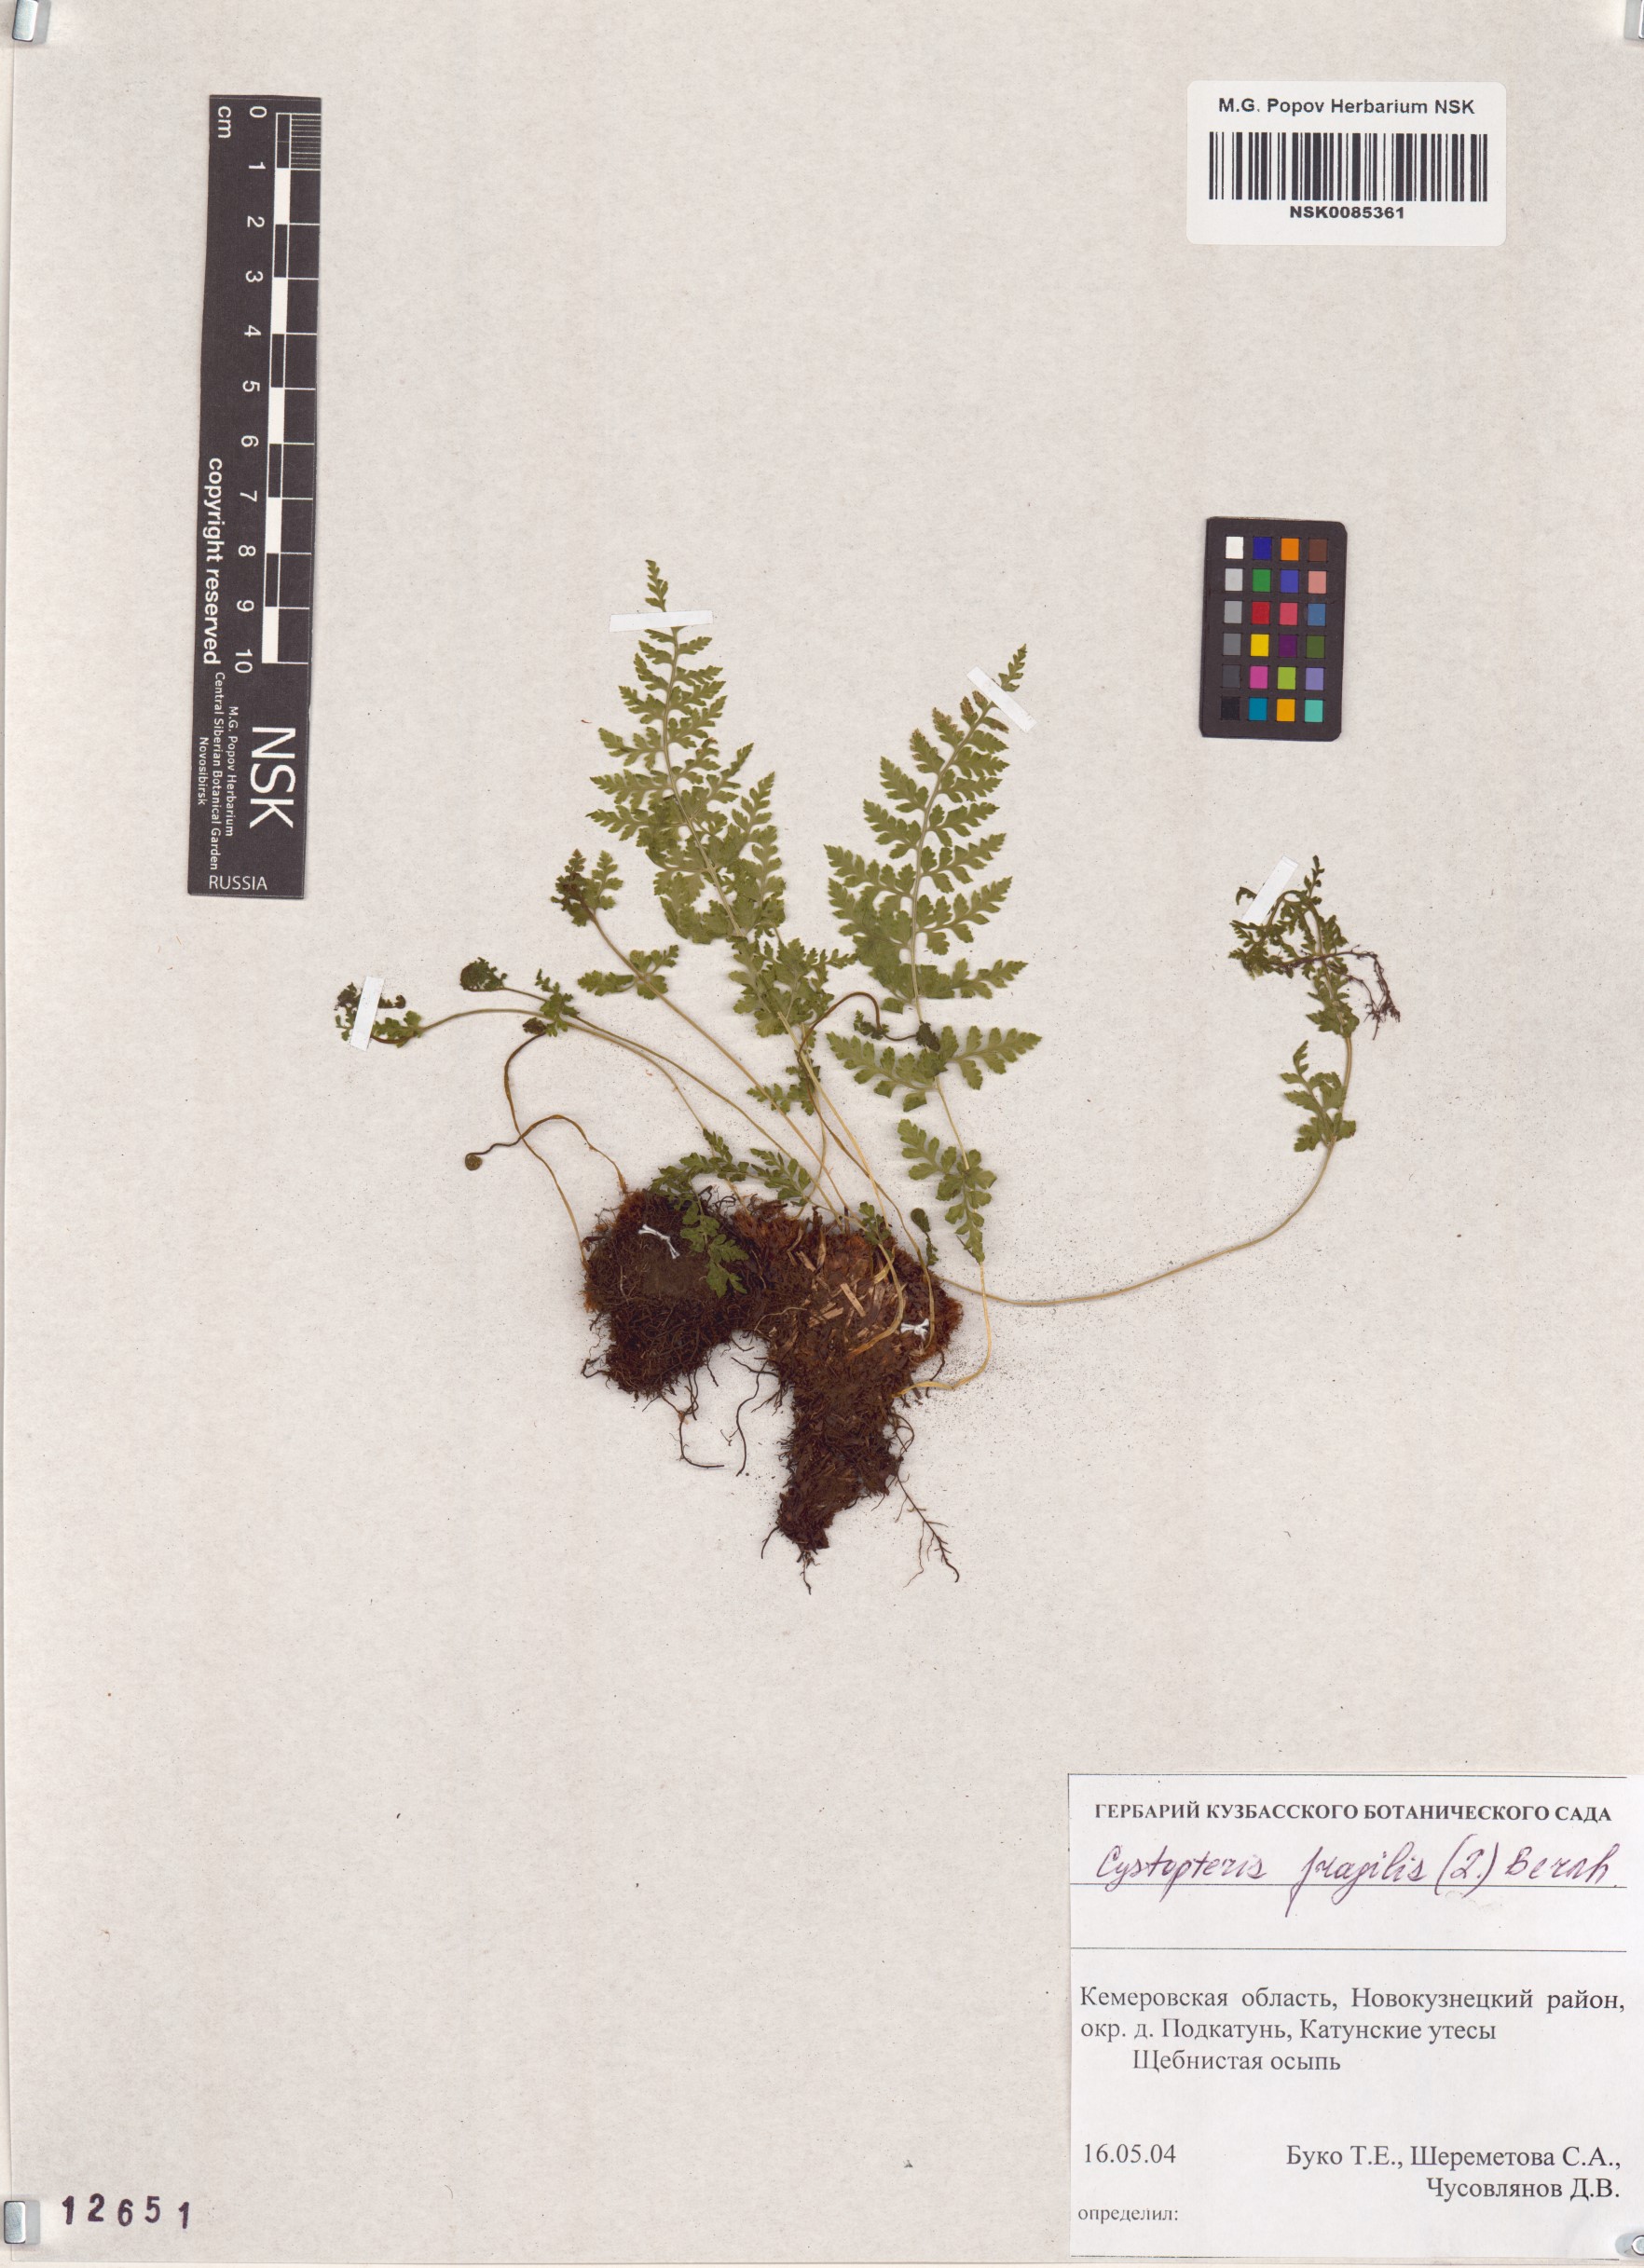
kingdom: Plantae
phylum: Tracheophyta
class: Polypodiopsida
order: Polypodiales
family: Cystopteridaceae
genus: Cystopteris
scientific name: Cystopteris fragilis
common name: Brittle bladder fern
